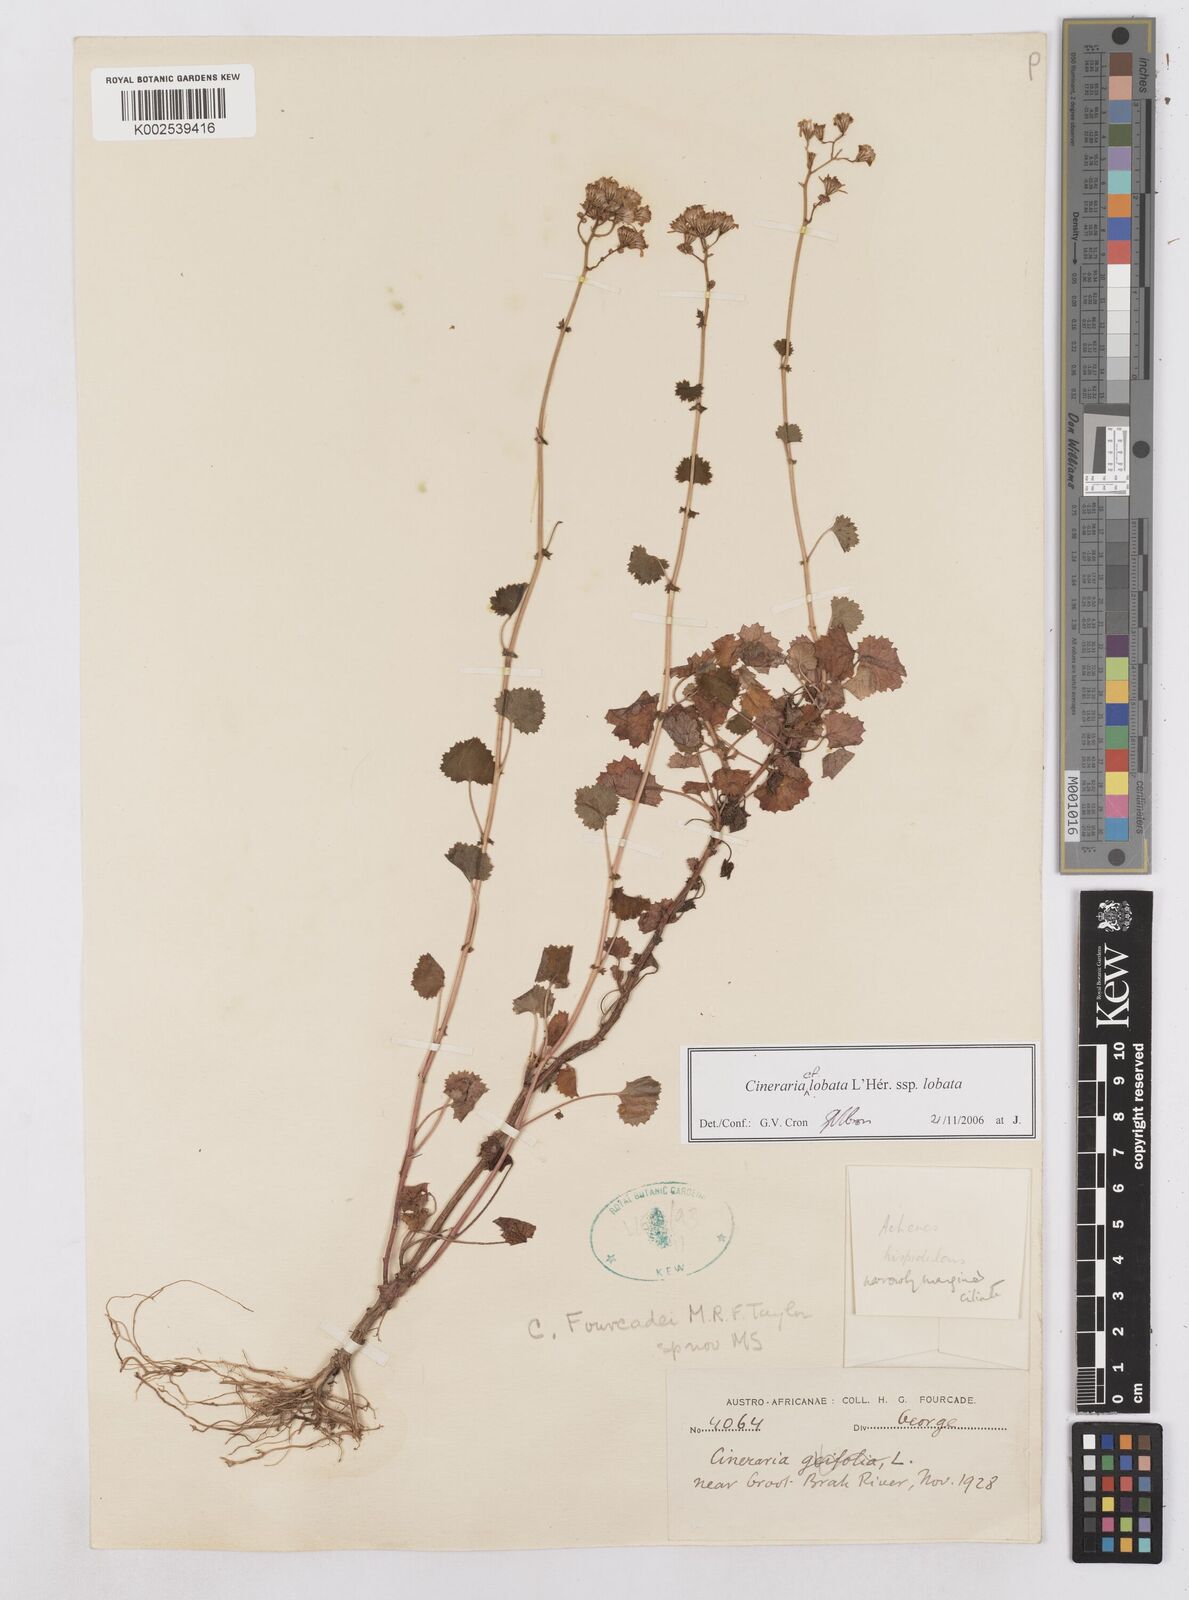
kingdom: Plantae
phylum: Tracheophyta
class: Magnoliopsida
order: Asterales
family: Asteraceae
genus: Cineraria
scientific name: Cineraria
